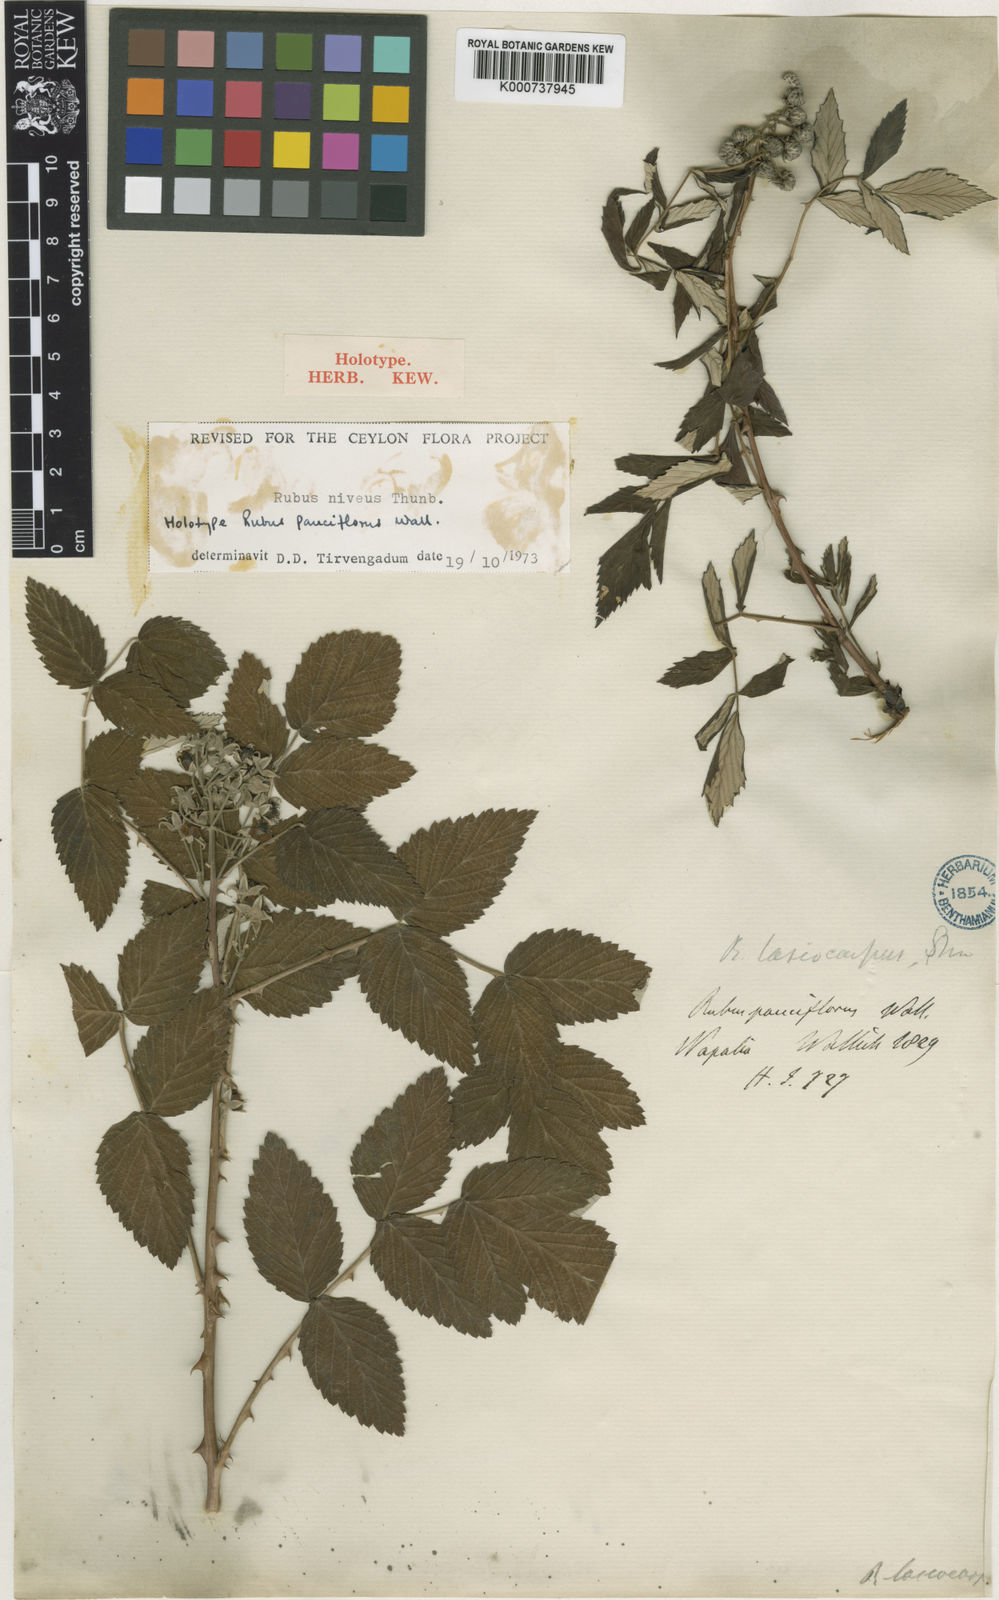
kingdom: Plantae
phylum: Tracheophyta
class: Magnoliopsida
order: Rosales
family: Rosaceae
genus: Rubus
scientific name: Rubus niveus
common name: Snowpeaks raspberry
